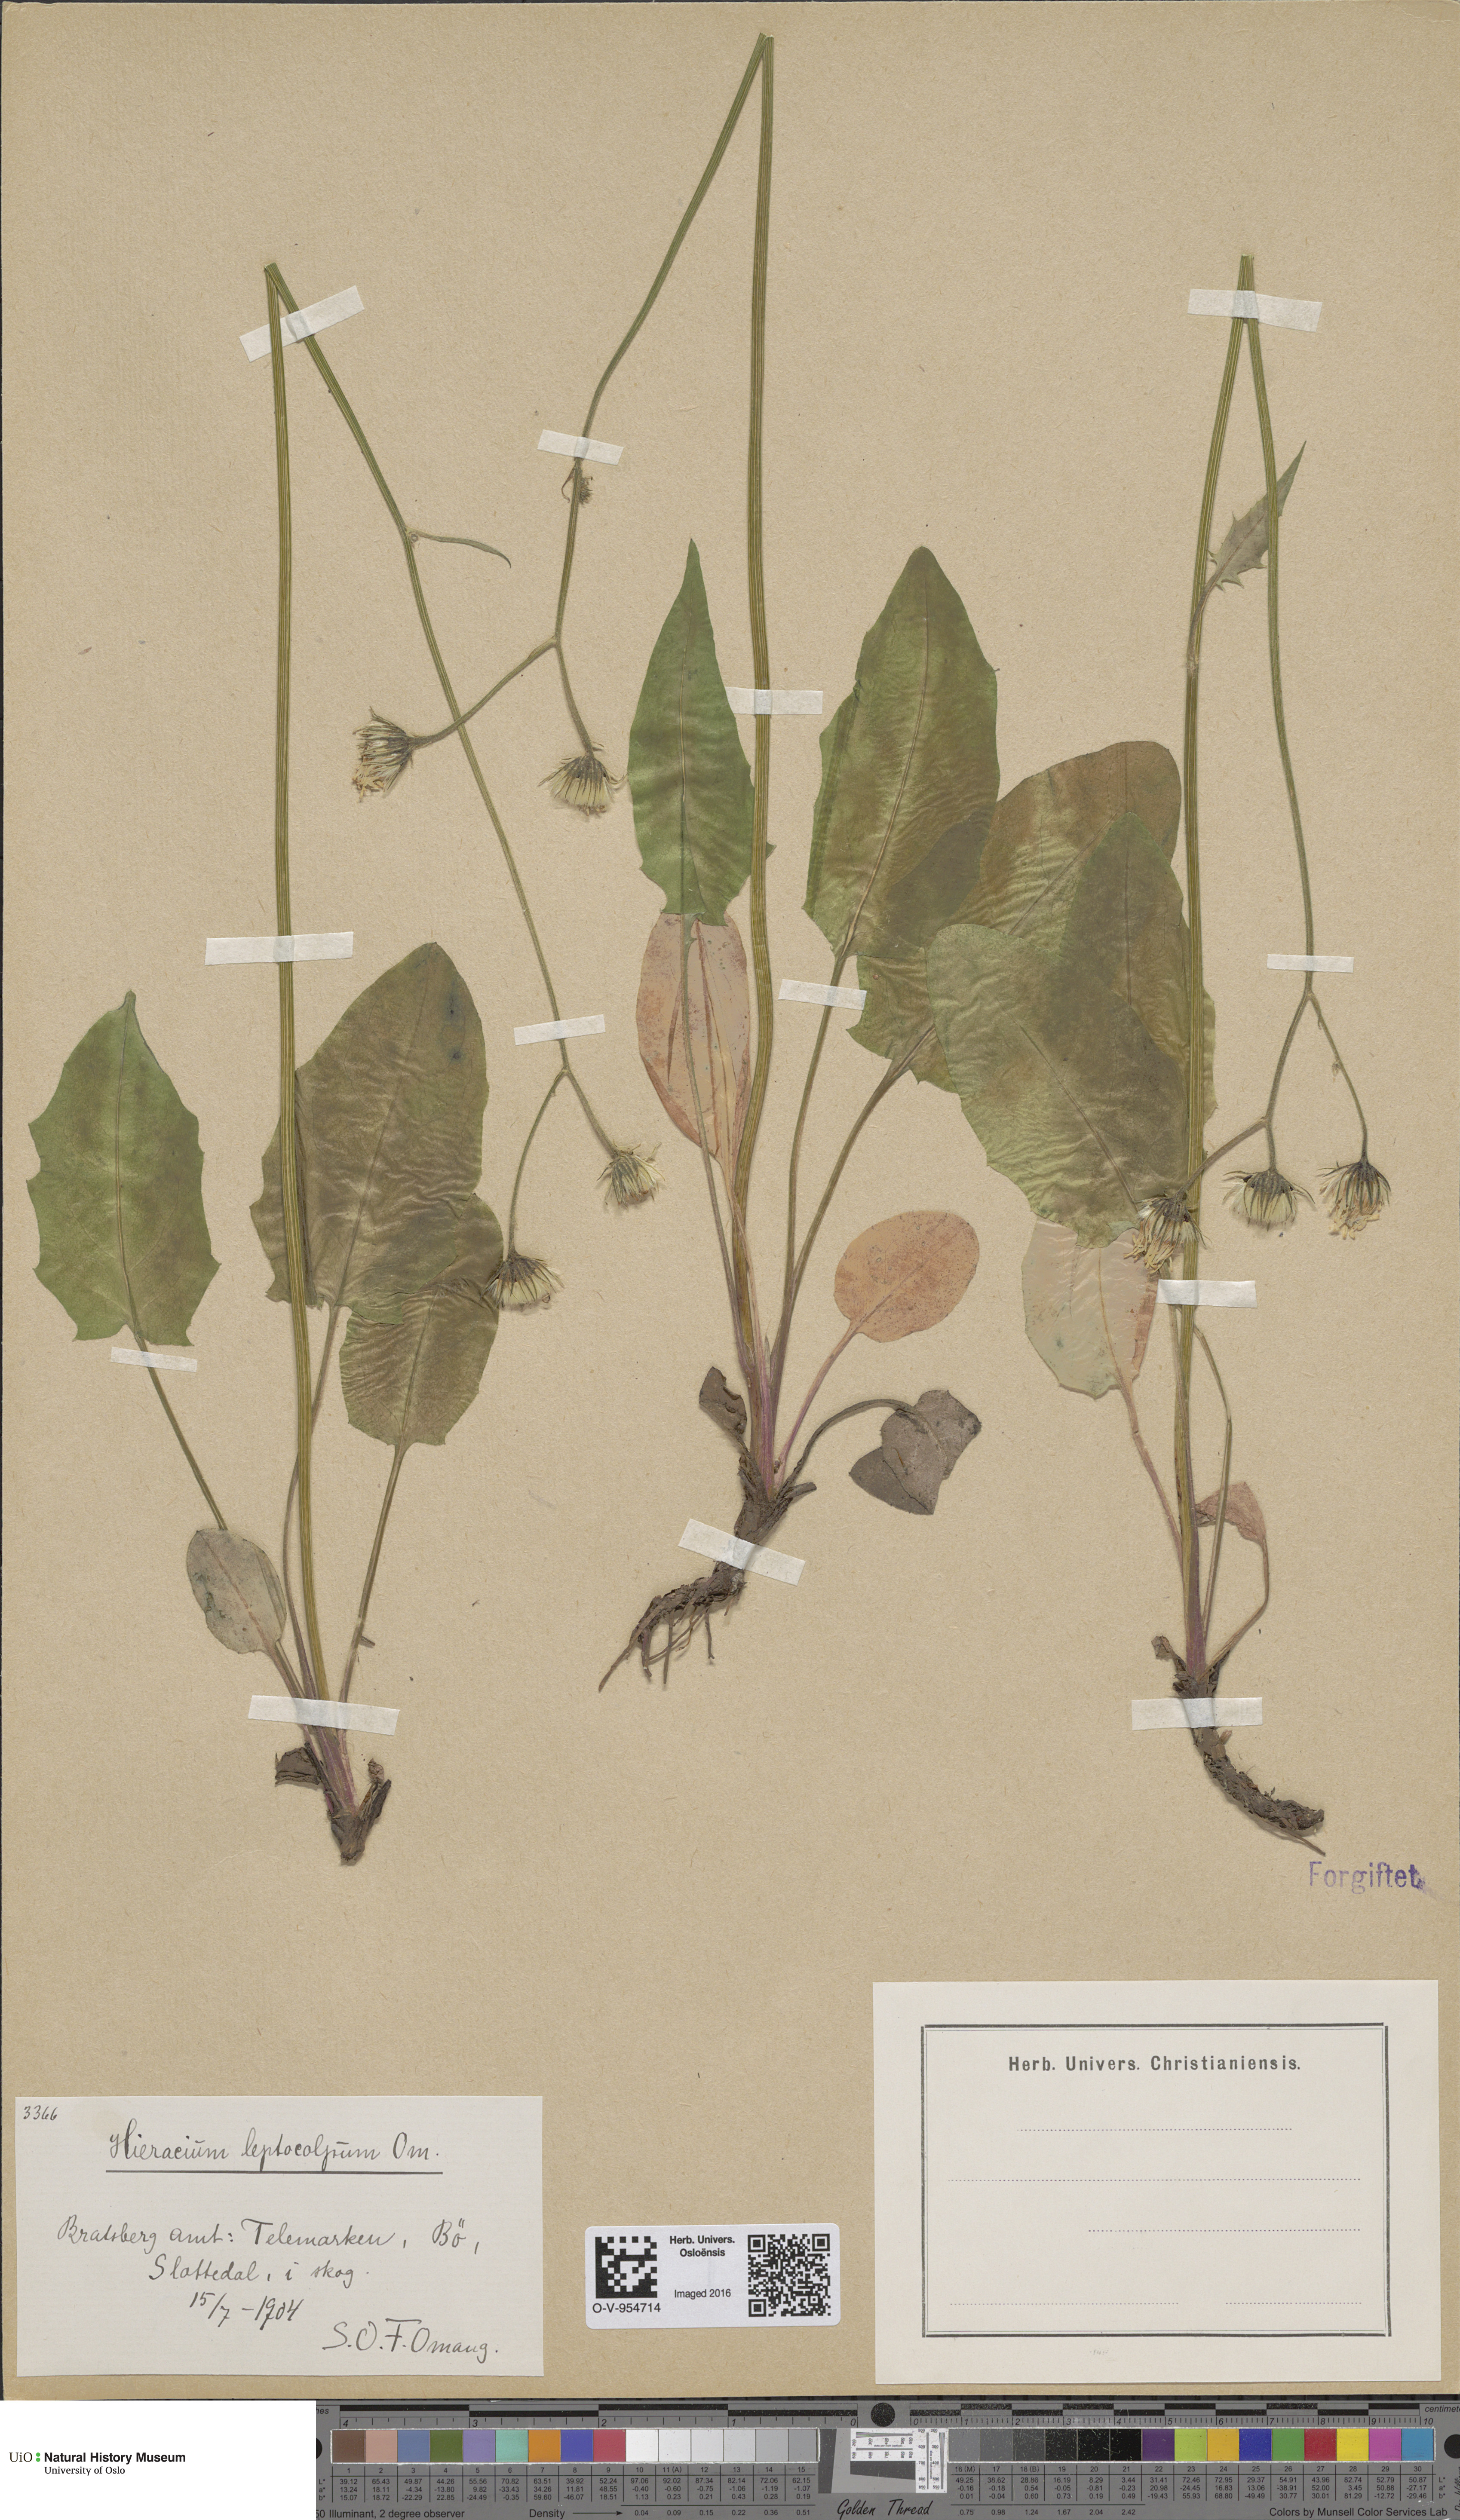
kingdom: Plantae
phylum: Tracheophyta
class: Magnoliopsida
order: Asterales
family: Asteraceae
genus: Hieracium
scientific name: Hieracium
